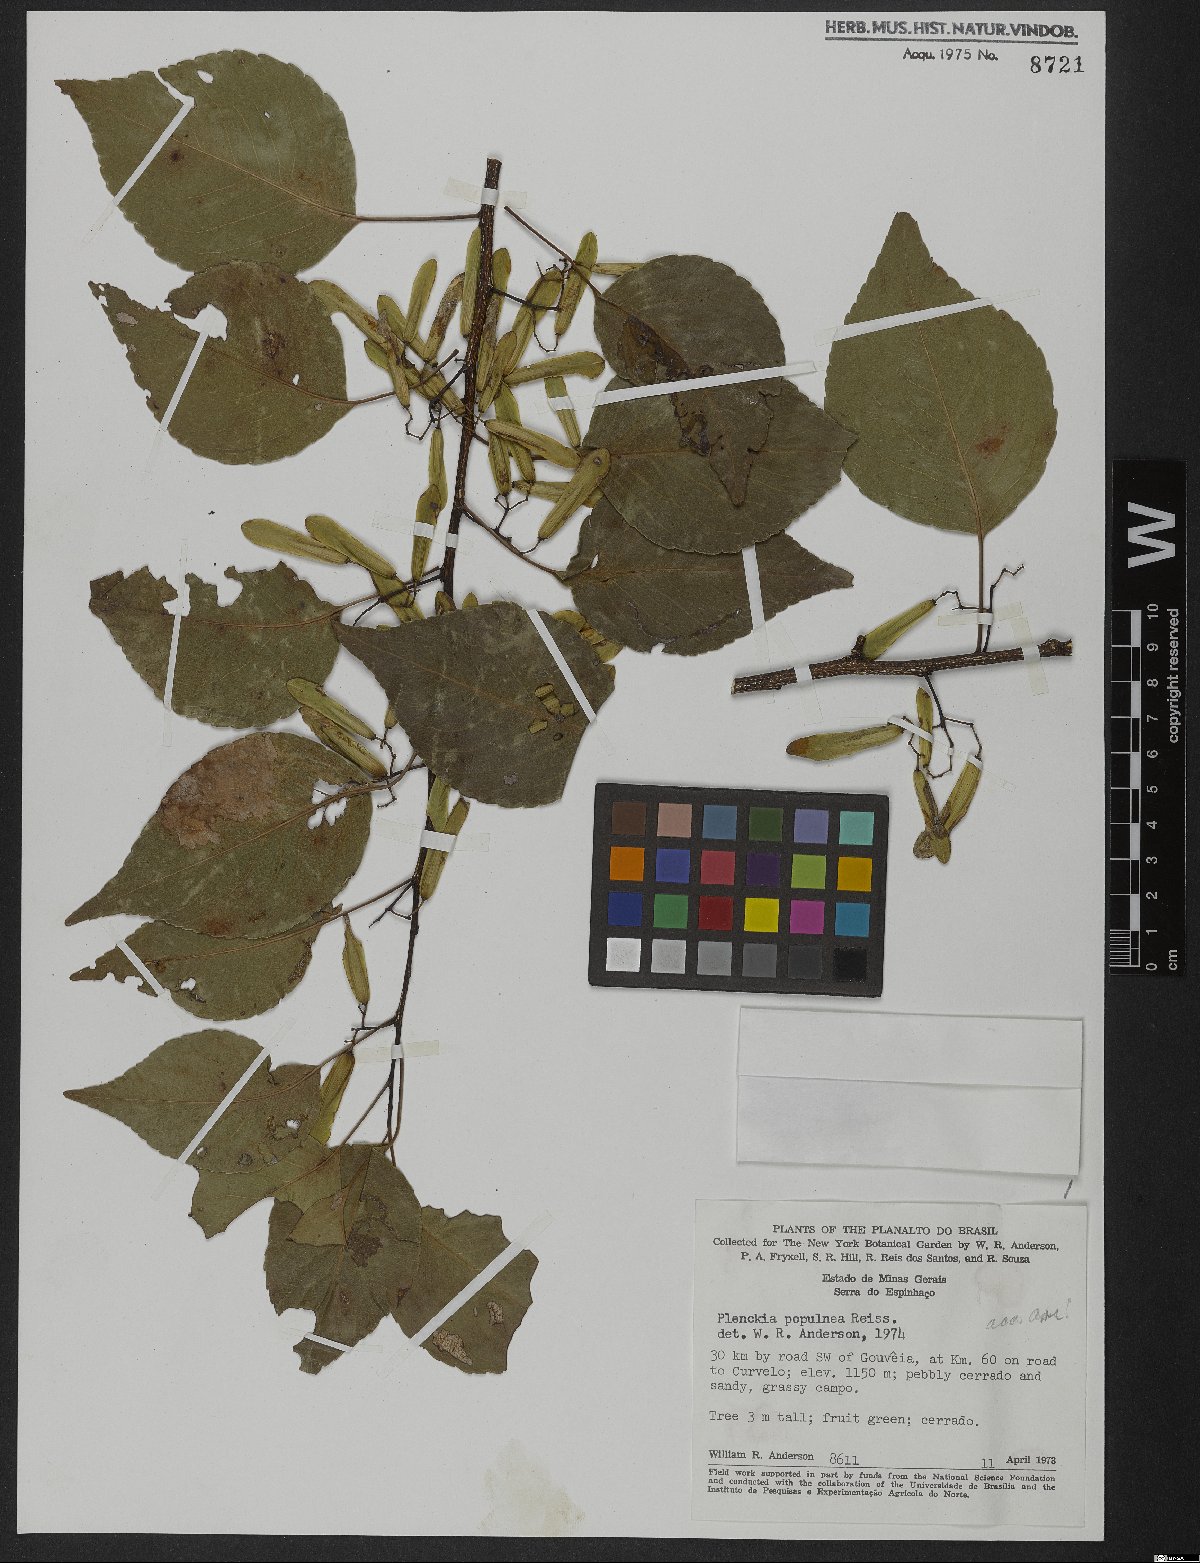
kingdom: Plantae
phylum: Tracheophyta
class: Magnoliopsida
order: Celastrales
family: Celastraceae
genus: Plenckia
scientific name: Plenckia populnea
